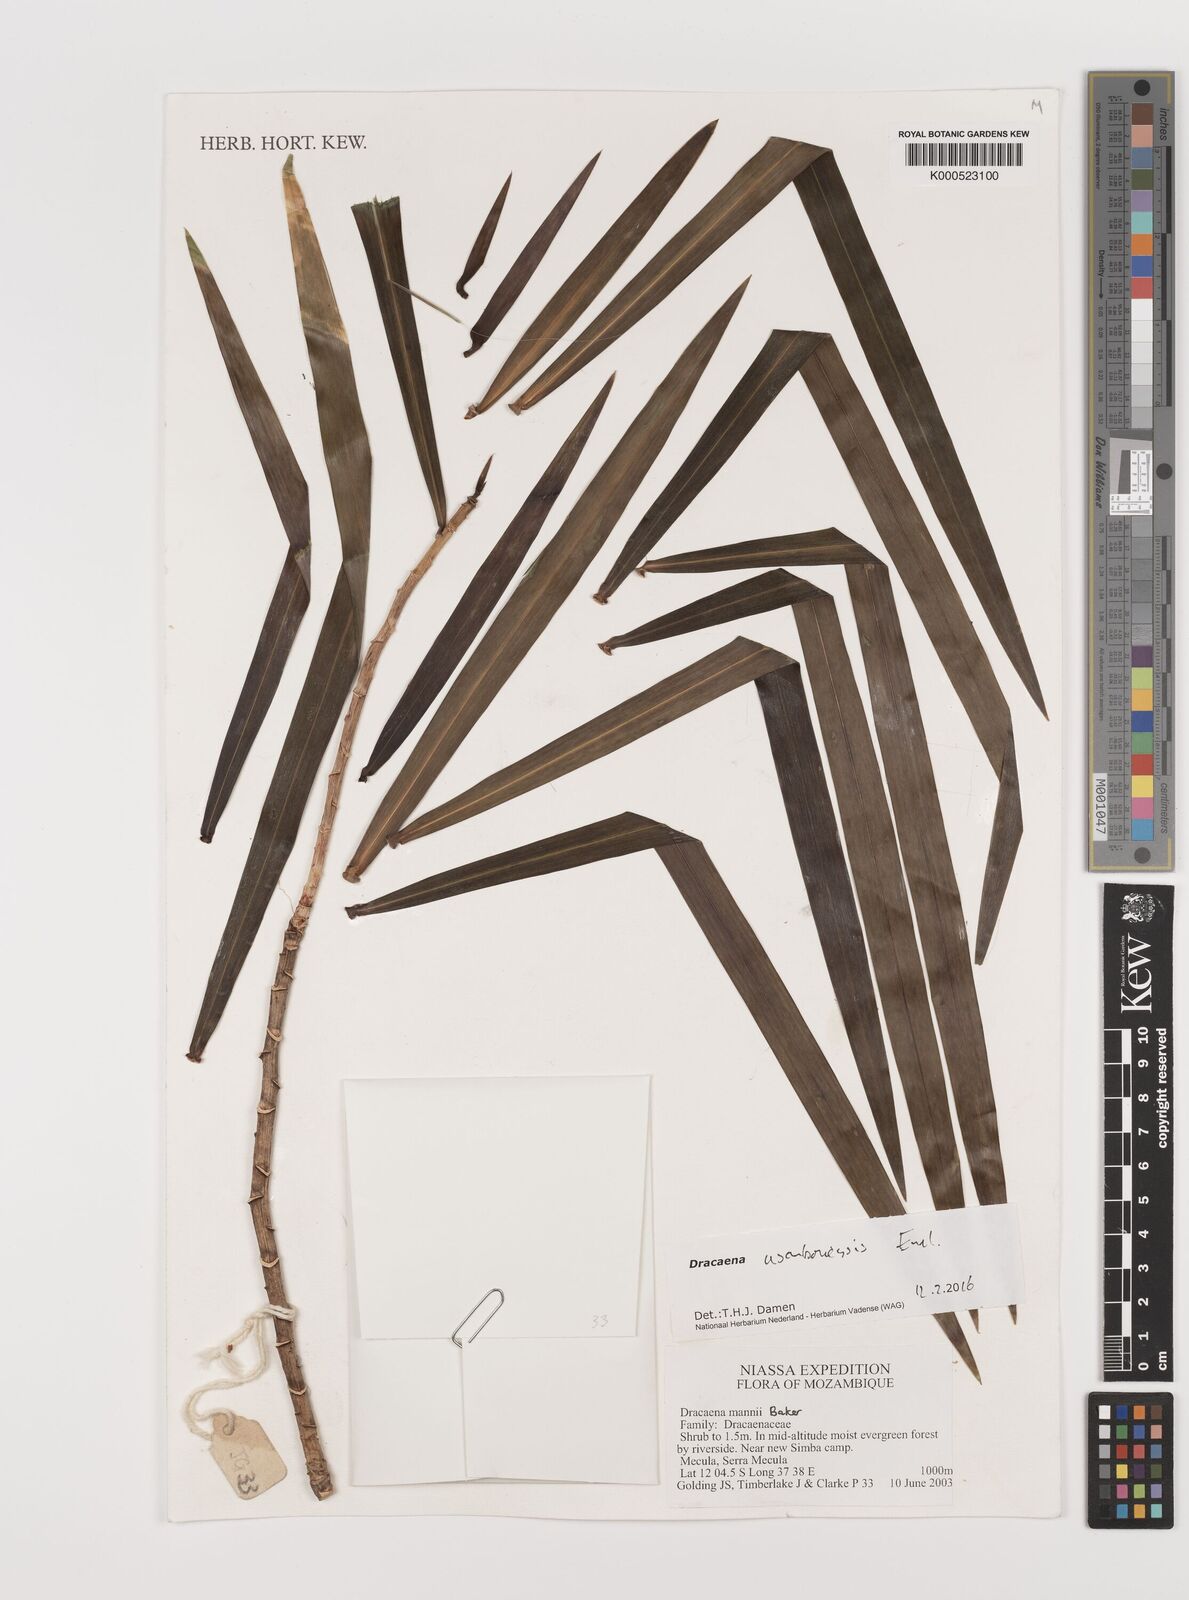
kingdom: Plantae
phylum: Tracheophyta
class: Liliopsida
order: Asparagales
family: Asparagaceae
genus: Dracaena
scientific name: Dracaena usambarensis
